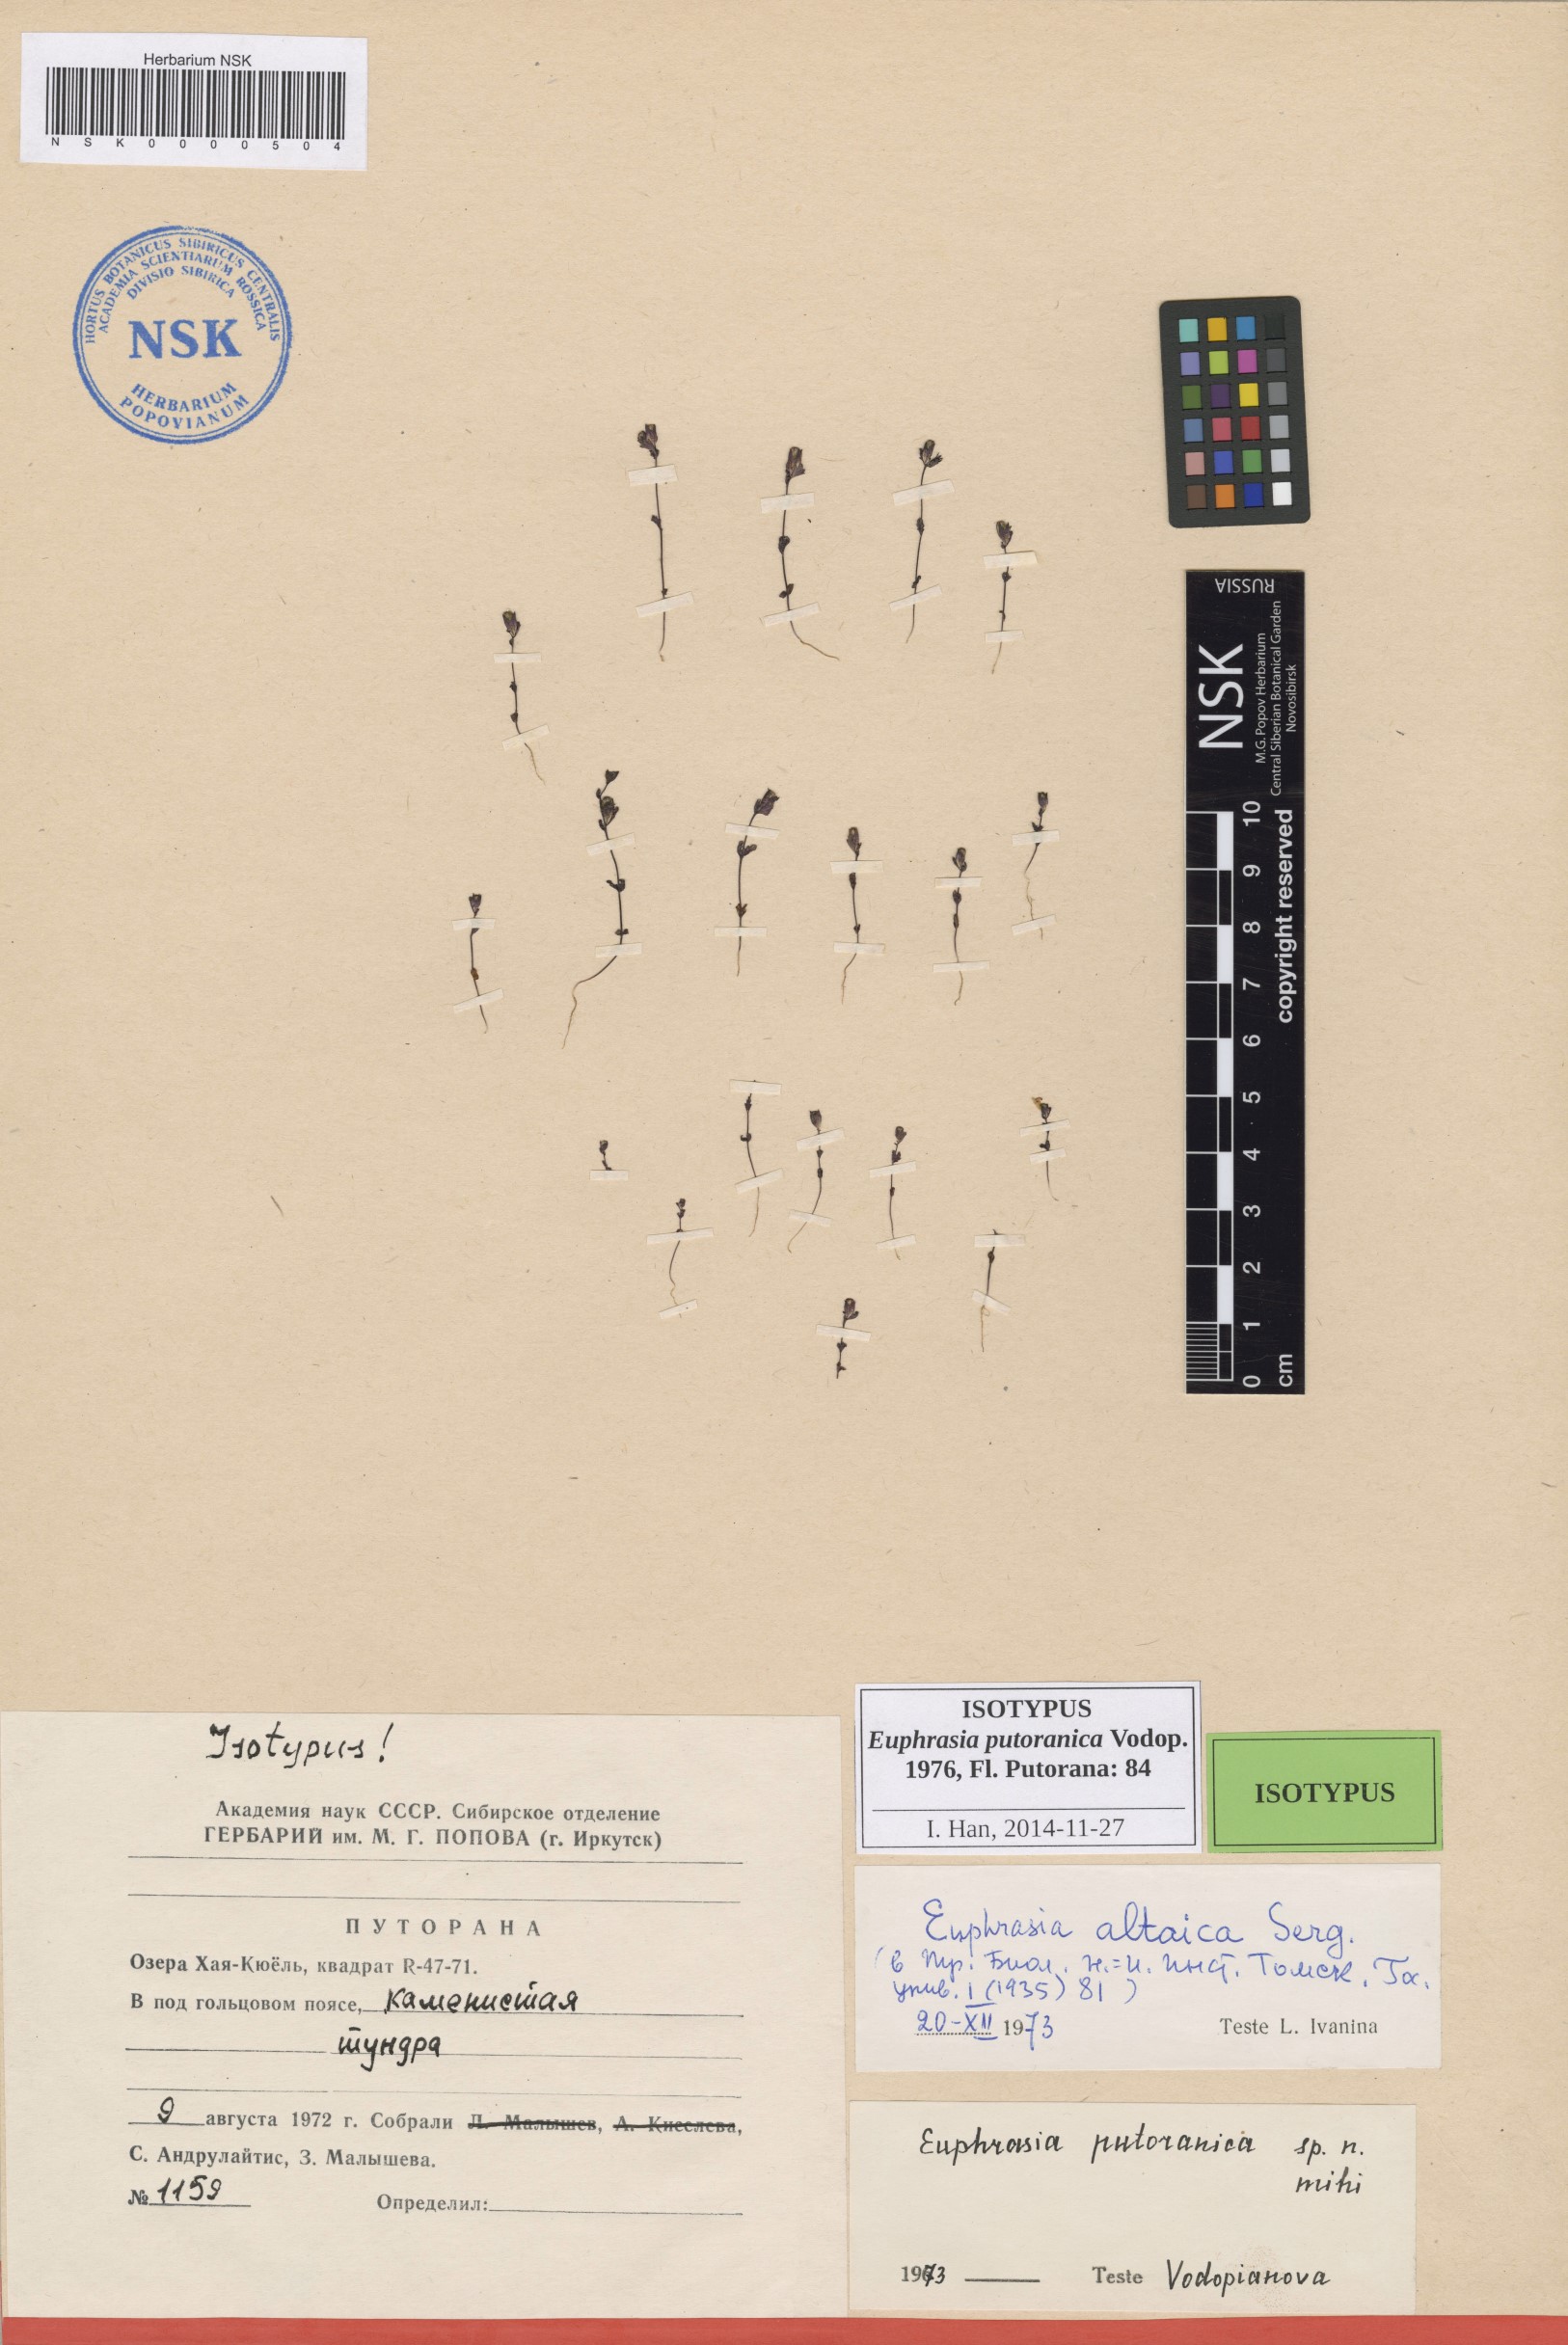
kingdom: Plantae
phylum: Tracheophyta
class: Magnoliopsida
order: Lamiales
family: Orobanchaceae
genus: Euphrasia
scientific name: Euphrasia frigida
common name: An eyebright
